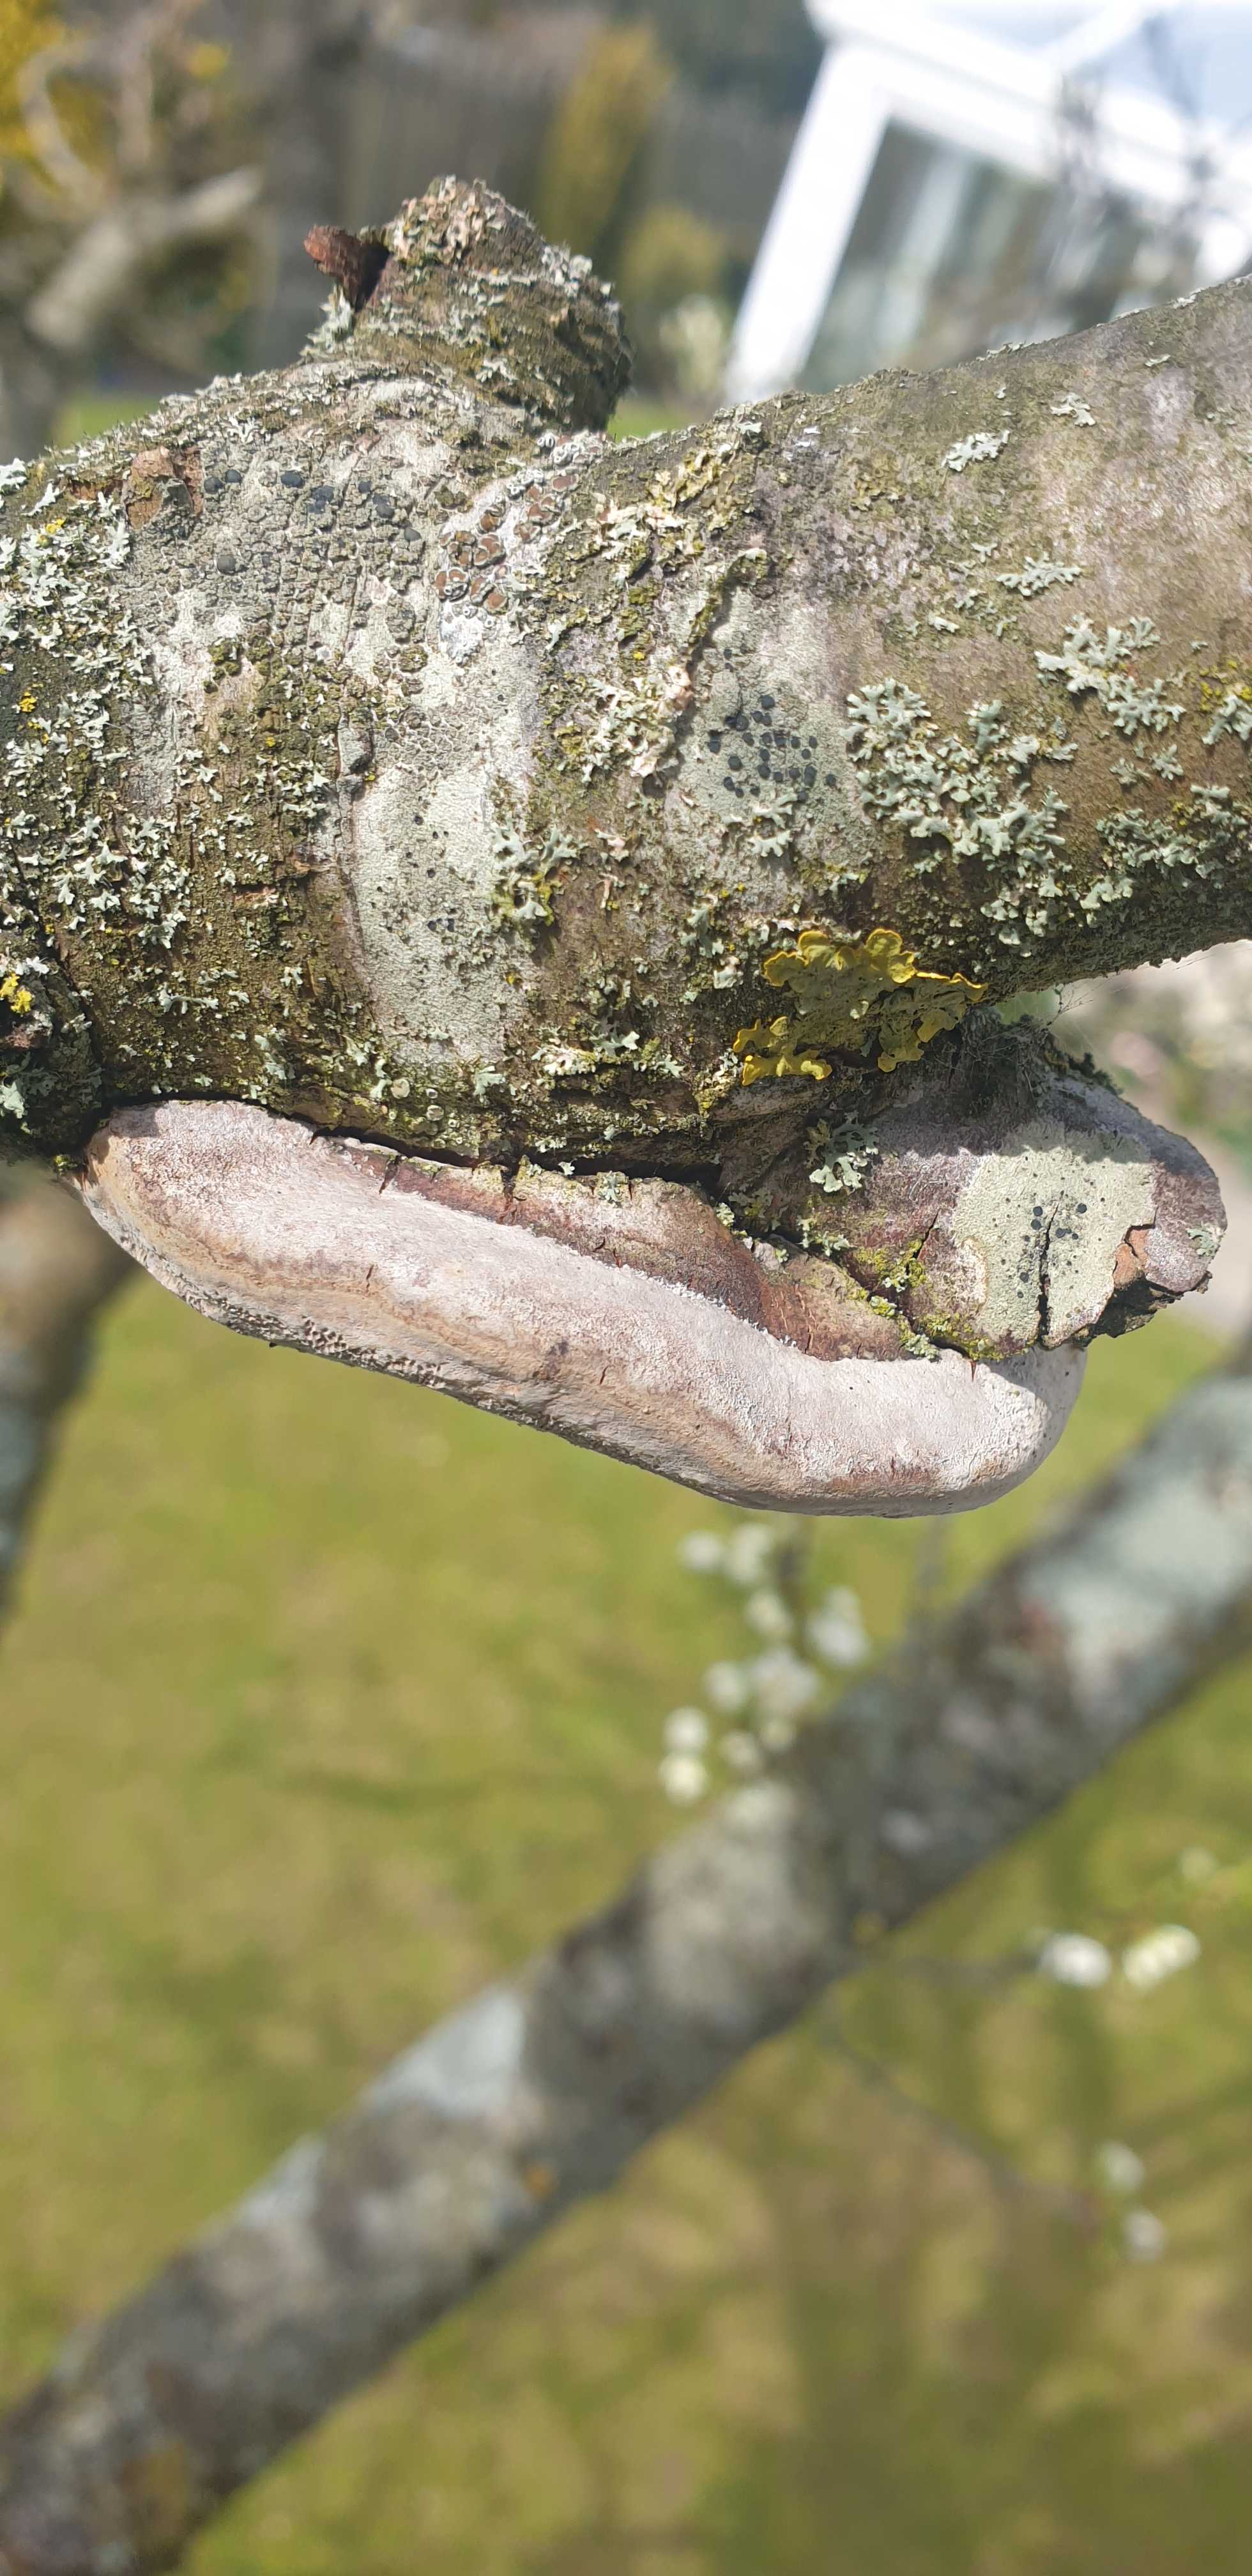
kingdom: Fungi
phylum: Basidiomycota
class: Agaricomycetes
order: Hymenochaetales
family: Hymenochaetaceae
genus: Phellinus
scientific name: Phellinus pomaceus
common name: blomme-ildporesvamp
